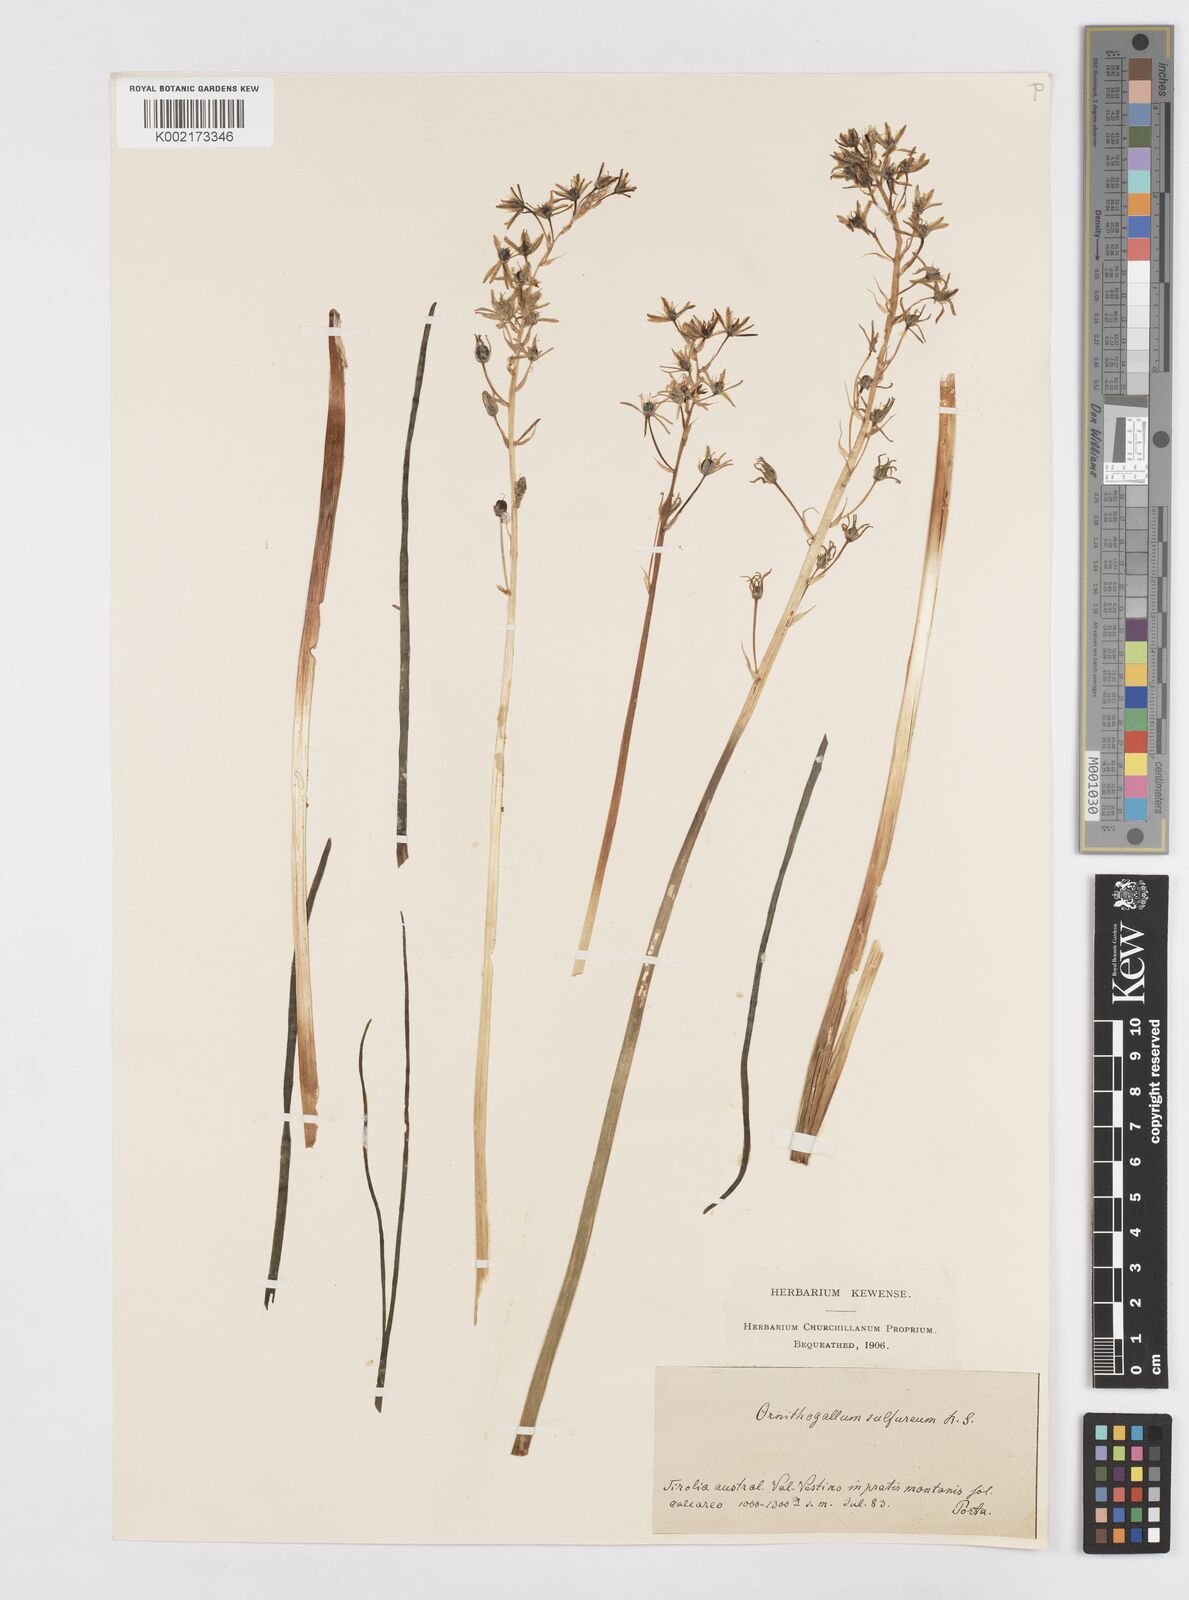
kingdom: Plantae
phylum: Tracheophyta
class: Liliopsida
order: Asparagales
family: Asparagaceae
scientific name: Asparagaceae
